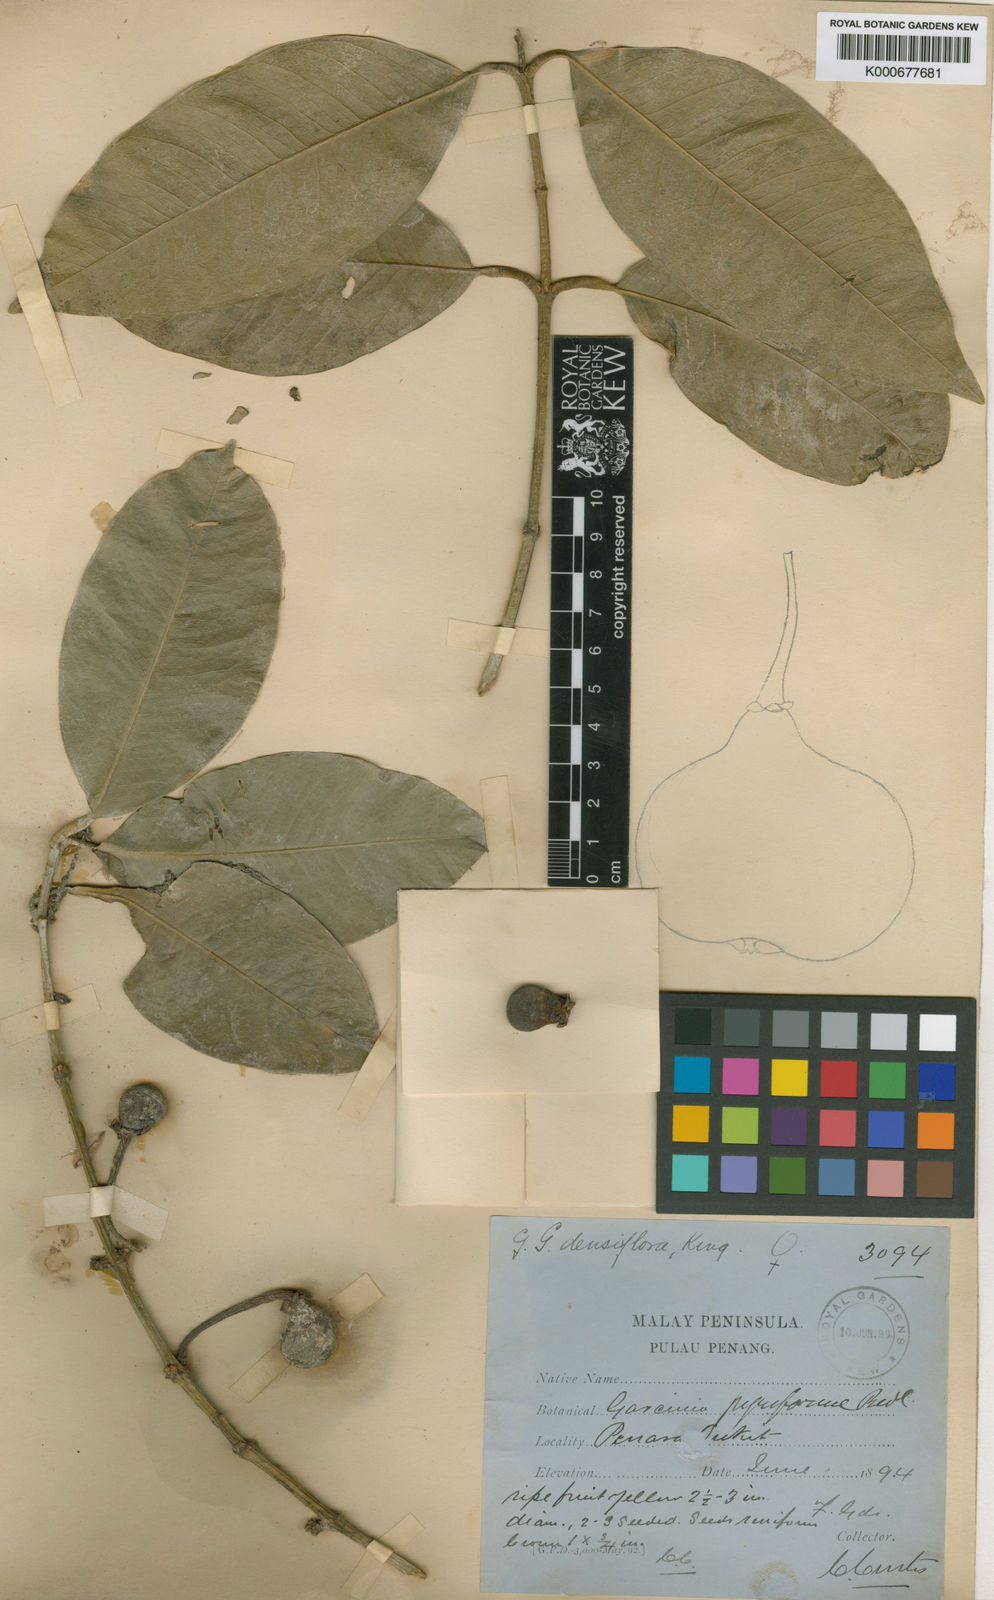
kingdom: Plantae
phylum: Tracheophyta
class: Magnoliopsida
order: Malpighiales
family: Clusiaceae
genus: Garcinia
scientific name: Garcinia pyrifera
